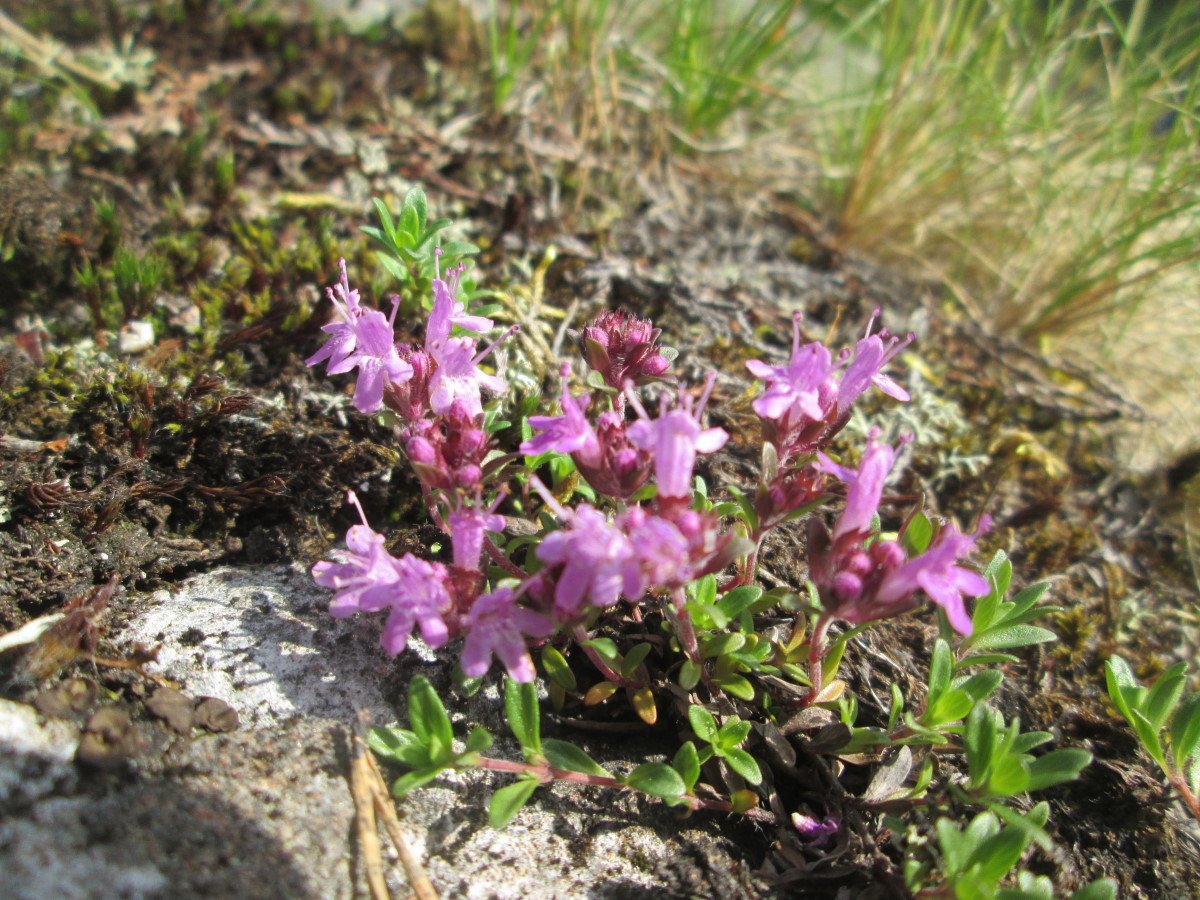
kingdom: Plantae
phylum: Tracheophyta
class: Magnoliopsida
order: Lamiales
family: Lamiaceae
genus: Thymus
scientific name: Thymus serpyllum
